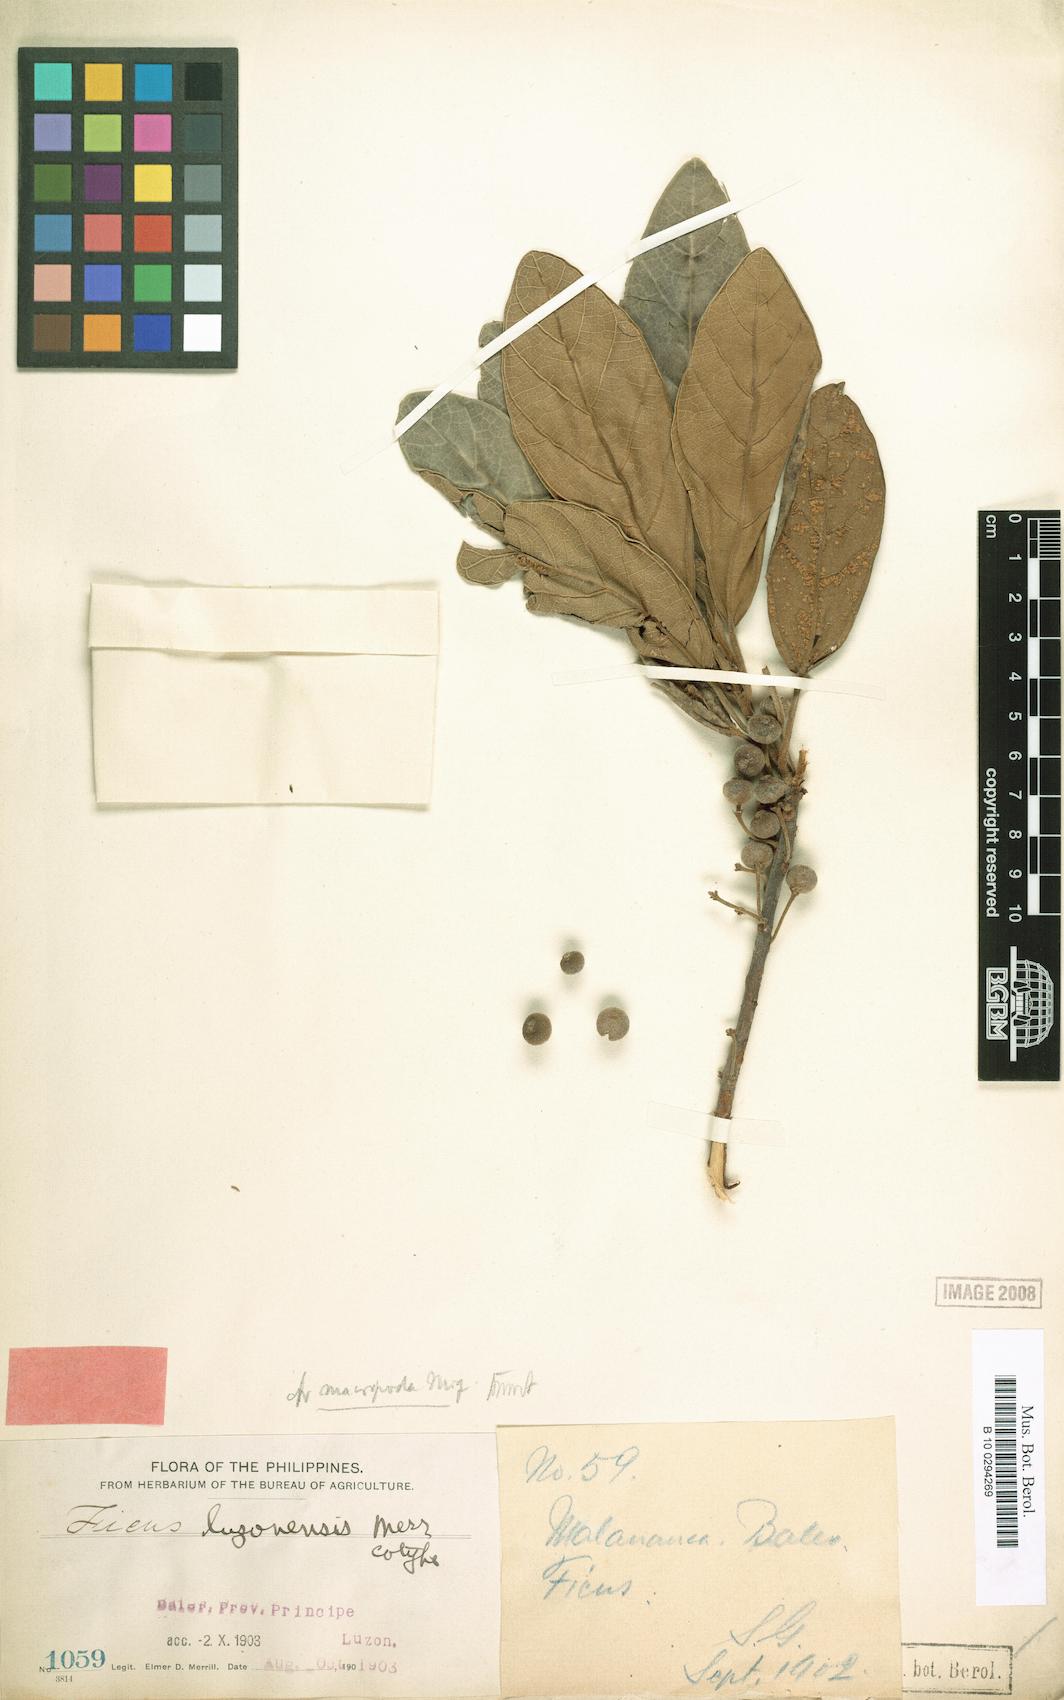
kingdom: Plantae
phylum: Tracheophyta
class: Magnoliopsida
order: Rosales
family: Moraceae
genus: Ficus
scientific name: Ficus pedunculosa
